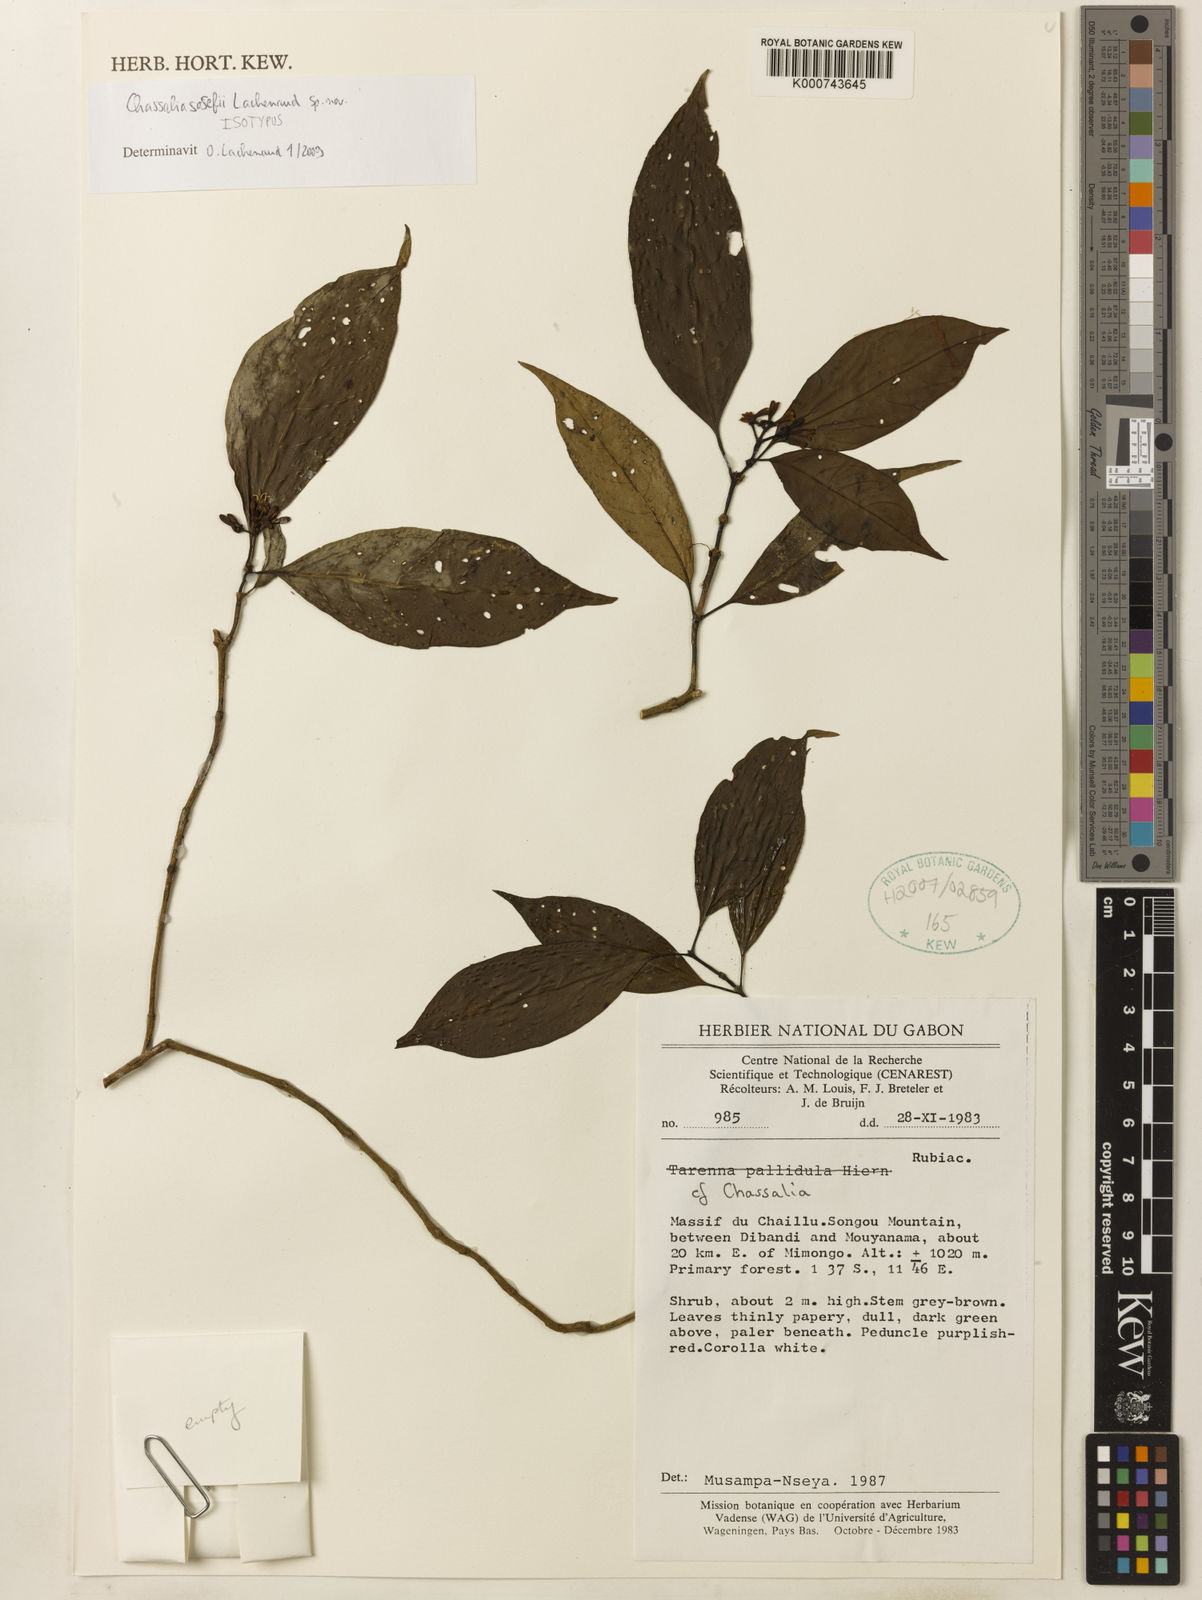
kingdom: Plantae
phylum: Tracheophyta
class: Magnoliopsida
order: Gentianales
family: Rubiaceae
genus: Chassalia
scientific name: Chassalia
